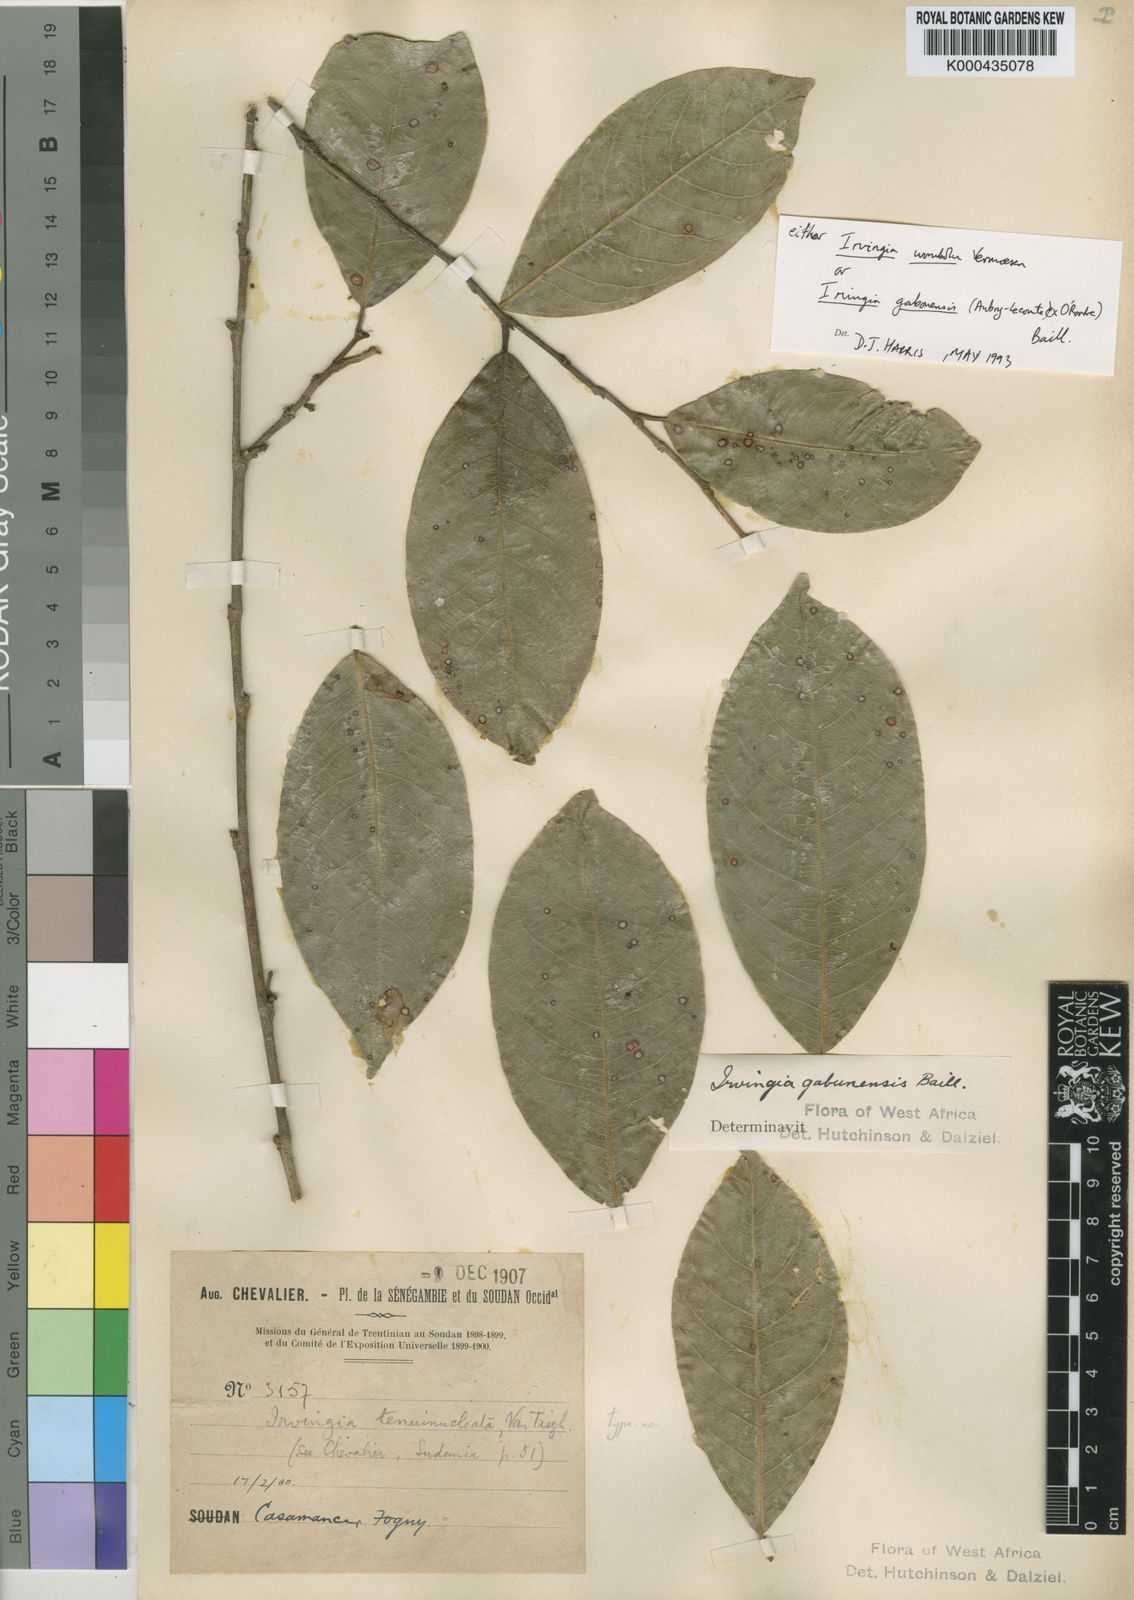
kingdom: Plantae
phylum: Tracheophyta
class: Magnoliopsida
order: Malpighiales
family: Irvingiaceae
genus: Irvingia
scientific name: Irvingia gabonensis
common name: Rainy season bush-mango
